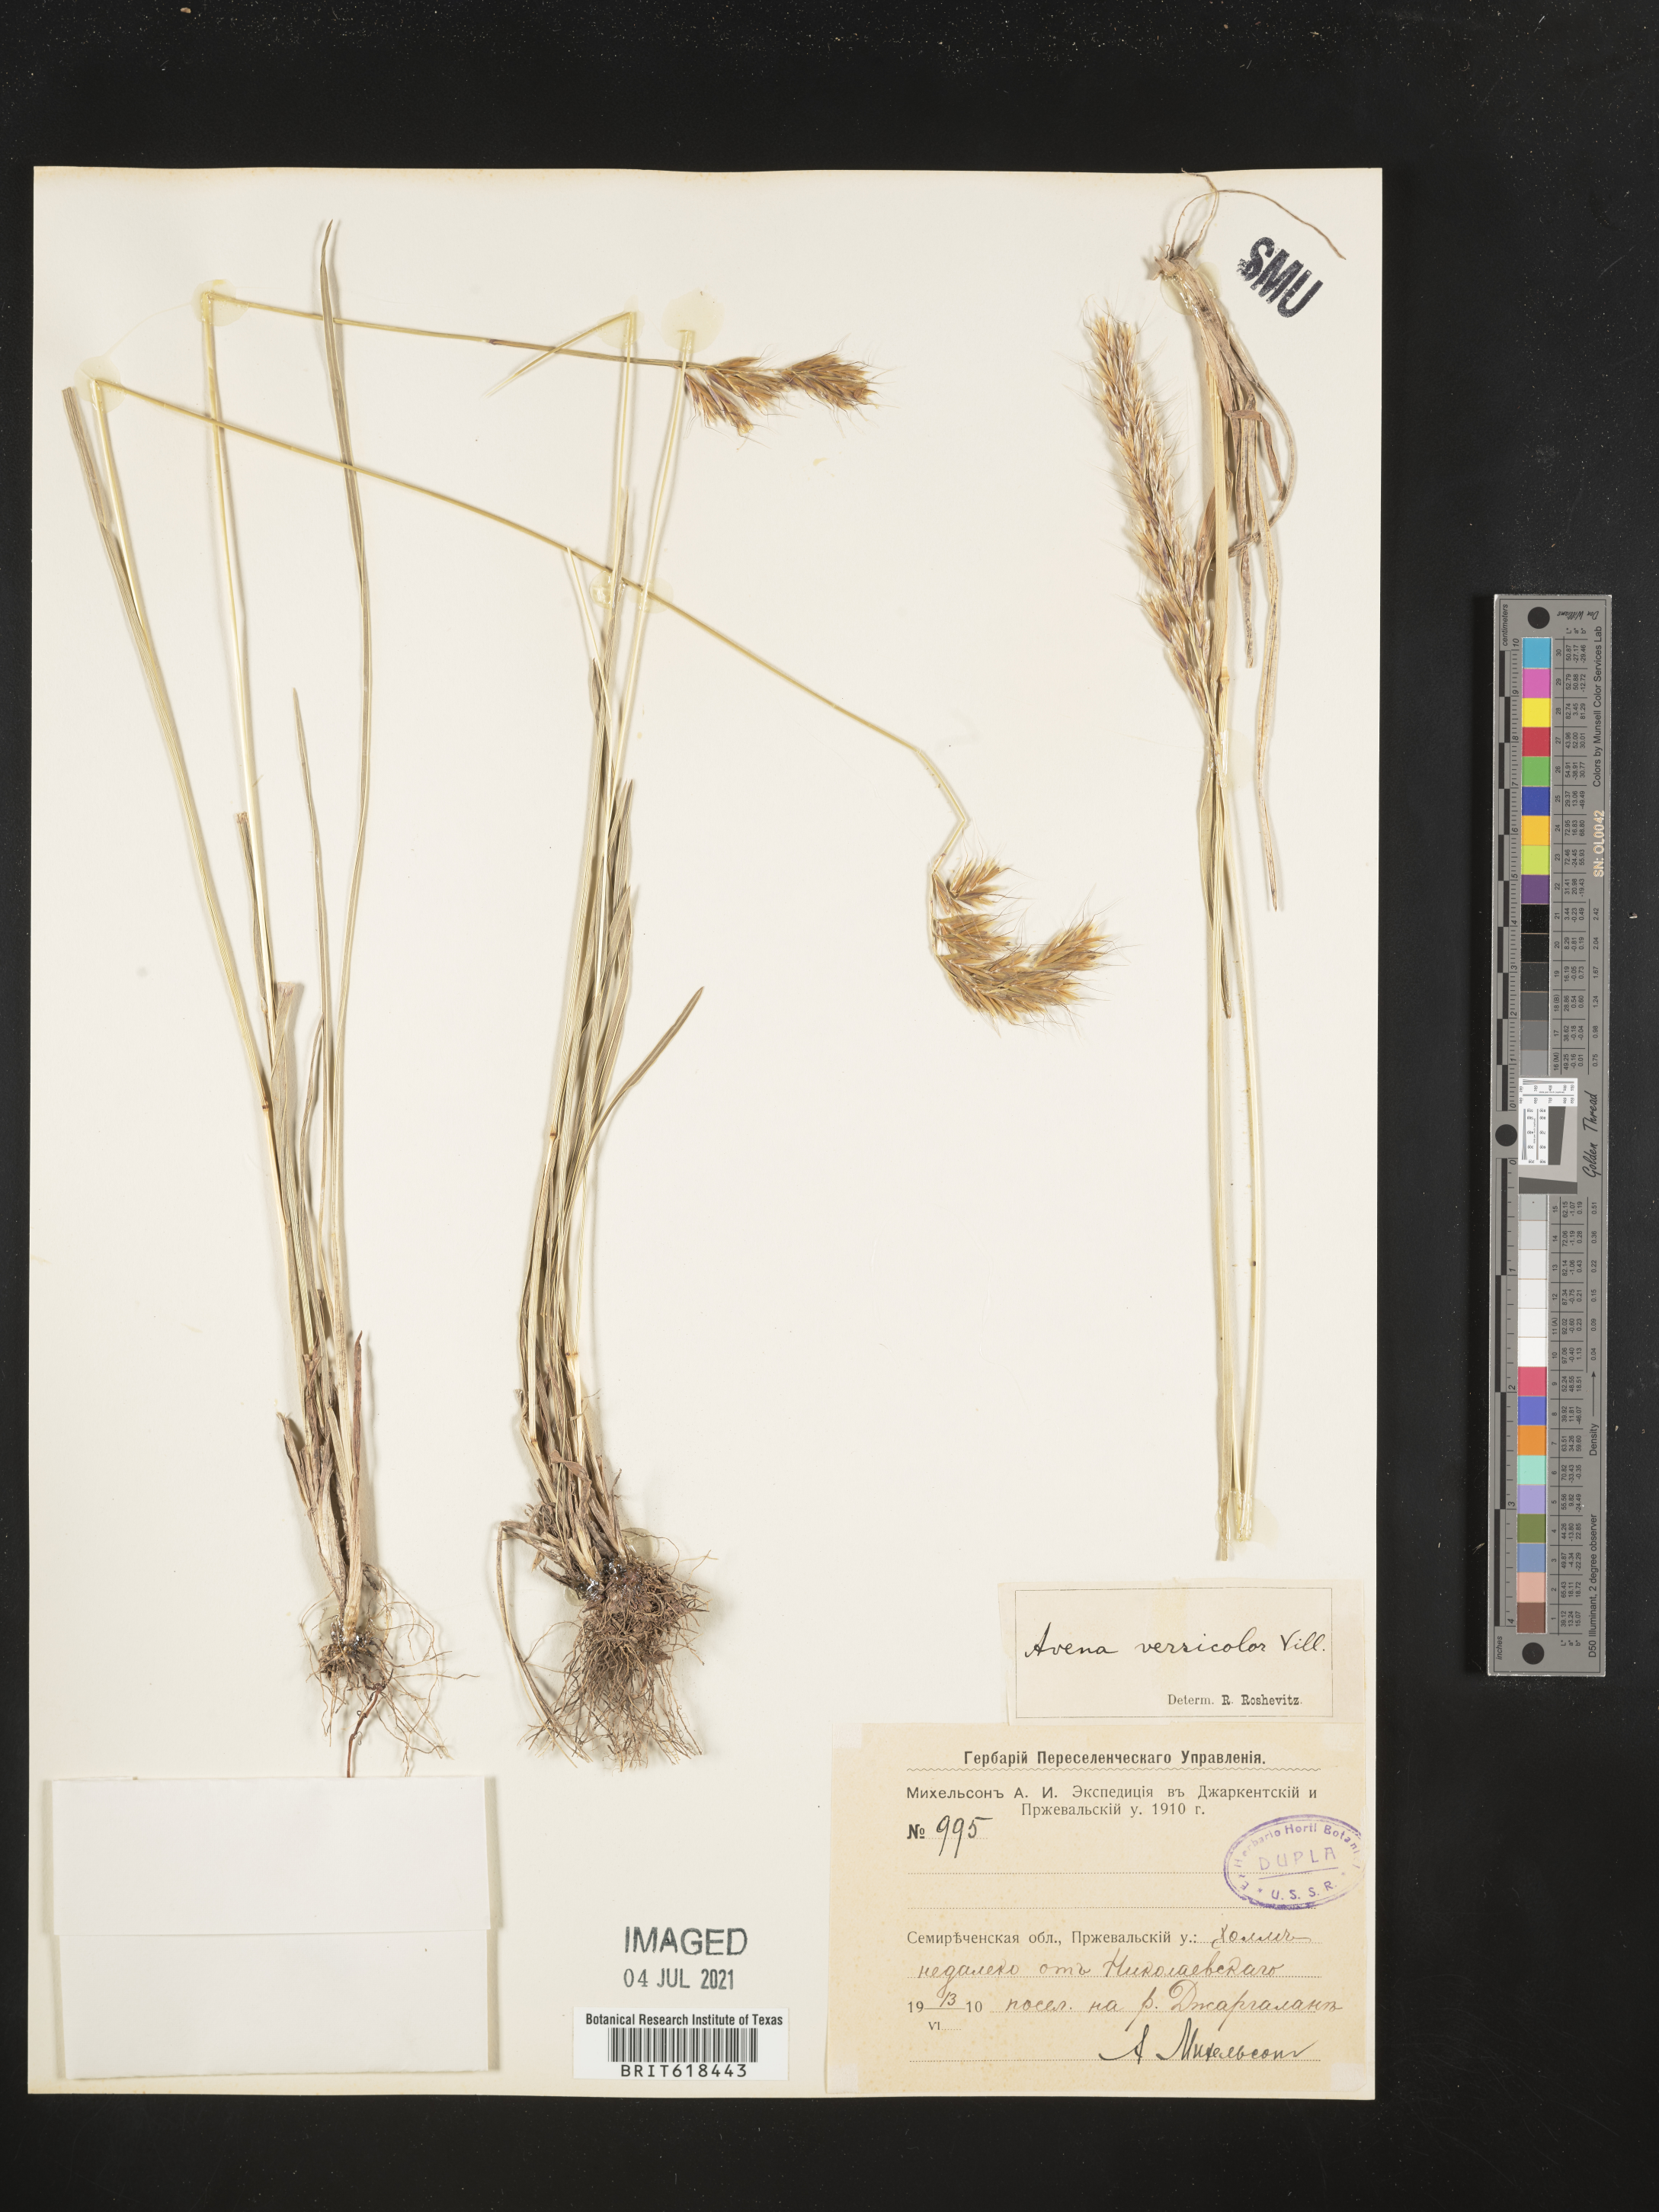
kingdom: Plantae
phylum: Tracheophyta
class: Liliopsida
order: Poales
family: Poaceae
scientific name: Poaceae
